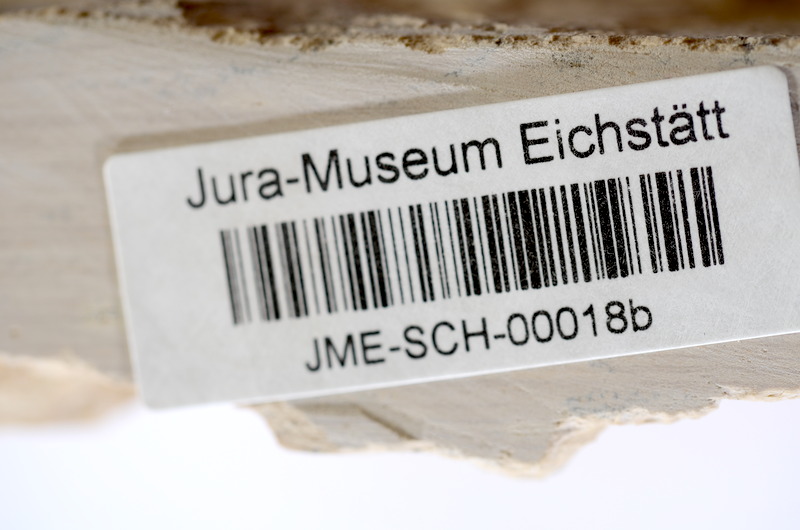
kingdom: Animalia
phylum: Chordata
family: Ascalaboidae
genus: Tharsis
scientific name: Tharsis dubius
